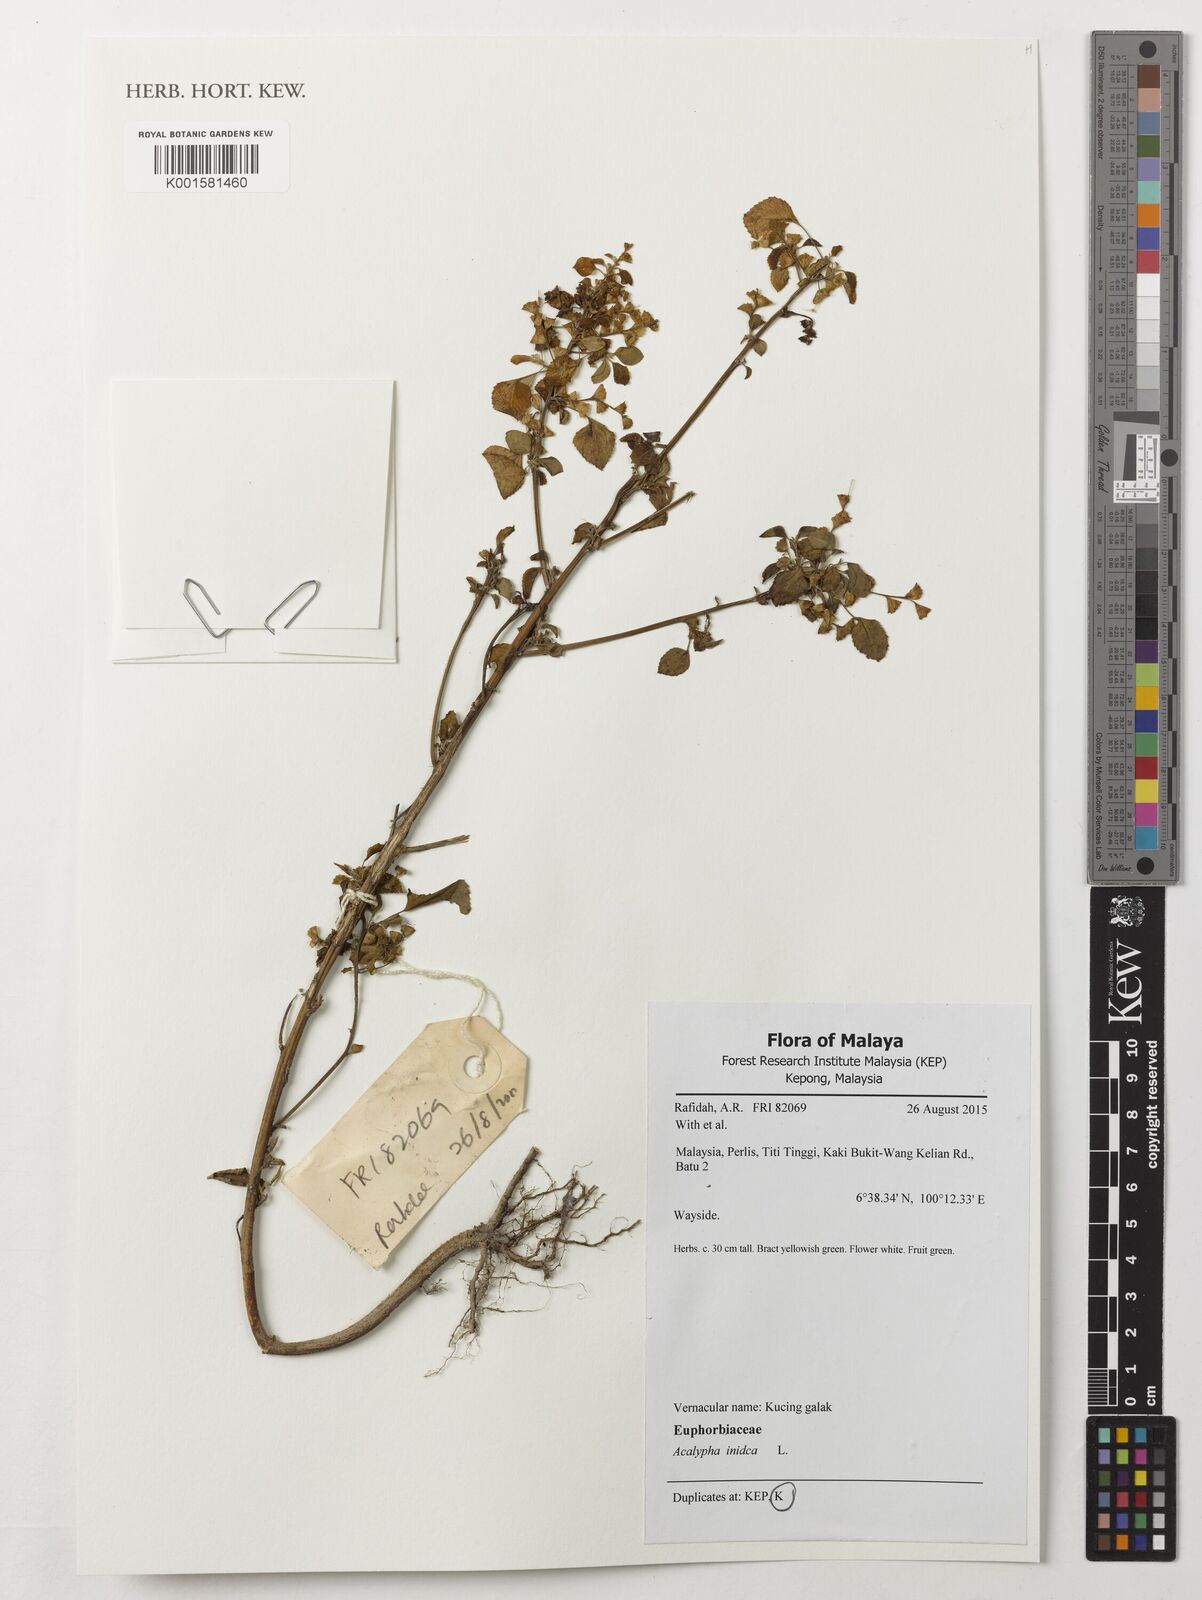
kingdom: Plantae
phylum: Tracheophyta
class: Magnoliopsida
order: Malpighiales
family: Euphorbiaceae
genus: Acalypha
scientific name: Acalypha indica
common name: Indian acalypha
